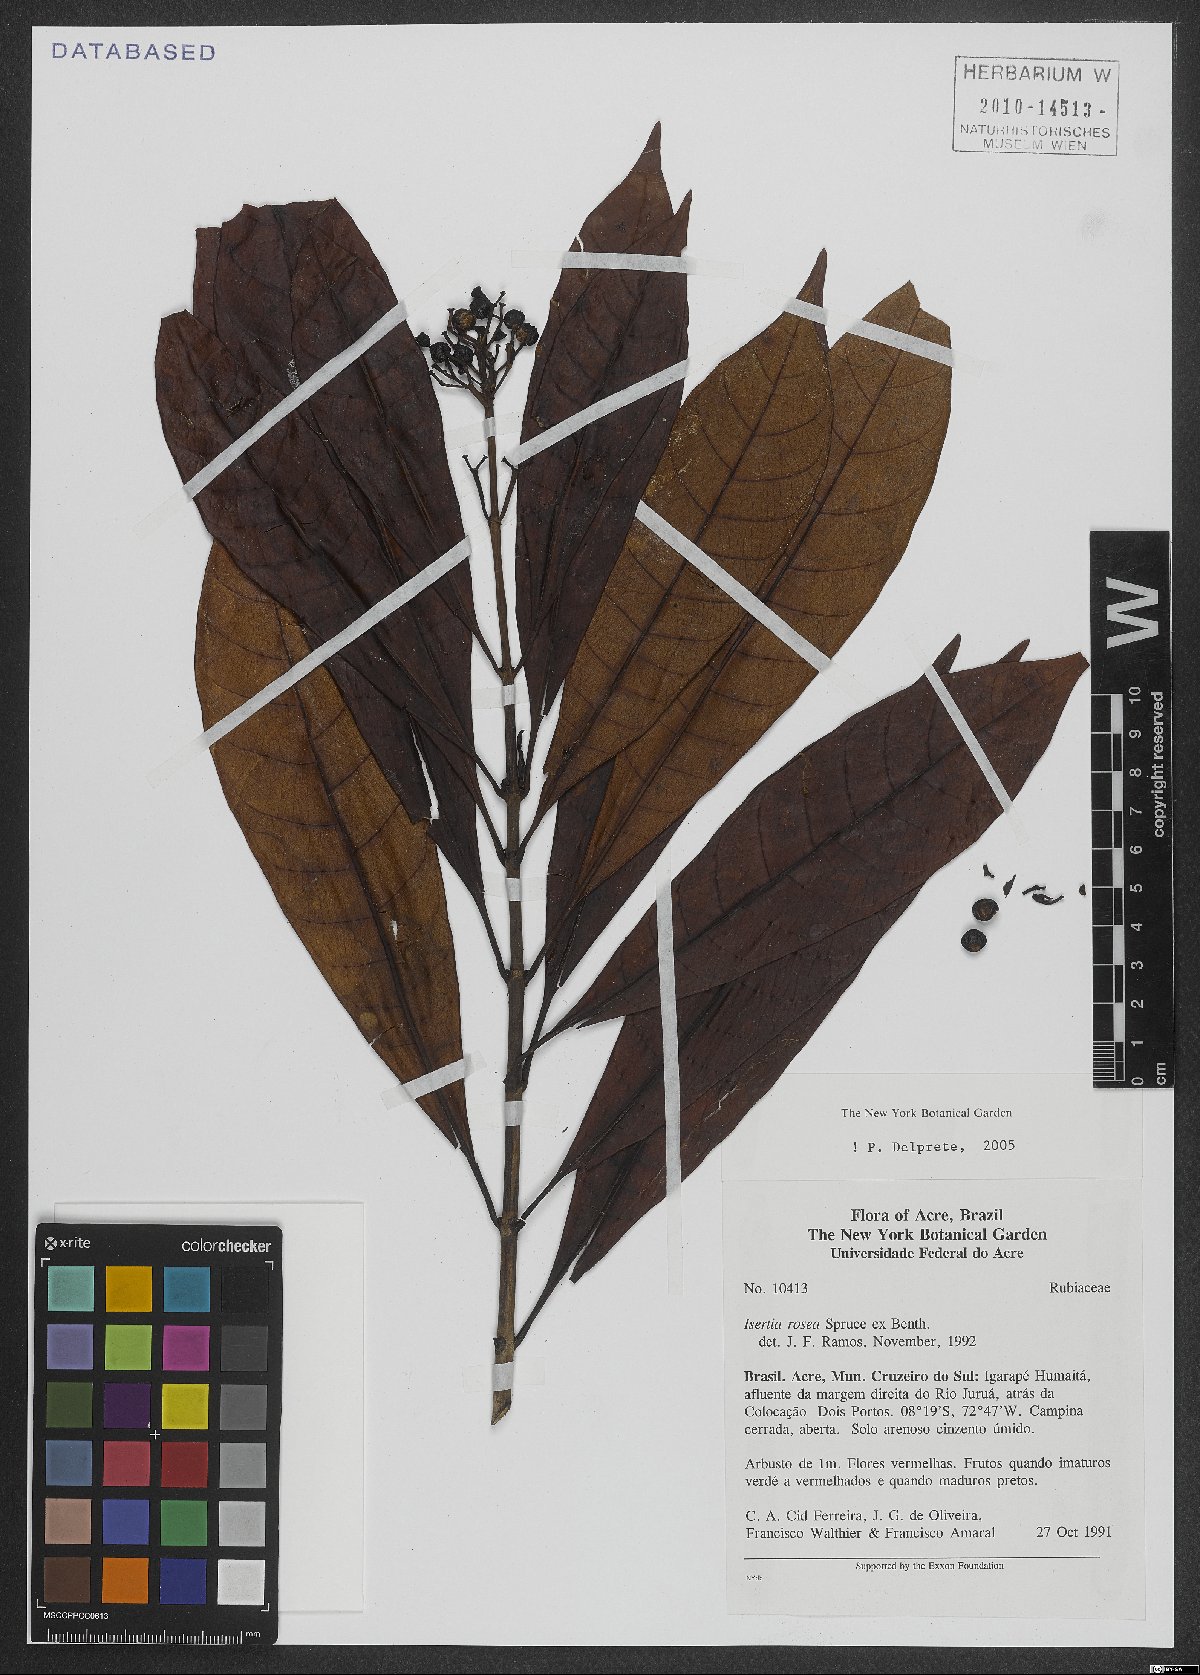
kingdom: Plantae
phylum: Tracheophyta
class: Magnoliopsida
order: Gentianales
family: Rubiaceae
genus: Isertia
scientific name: Isertia rosea
